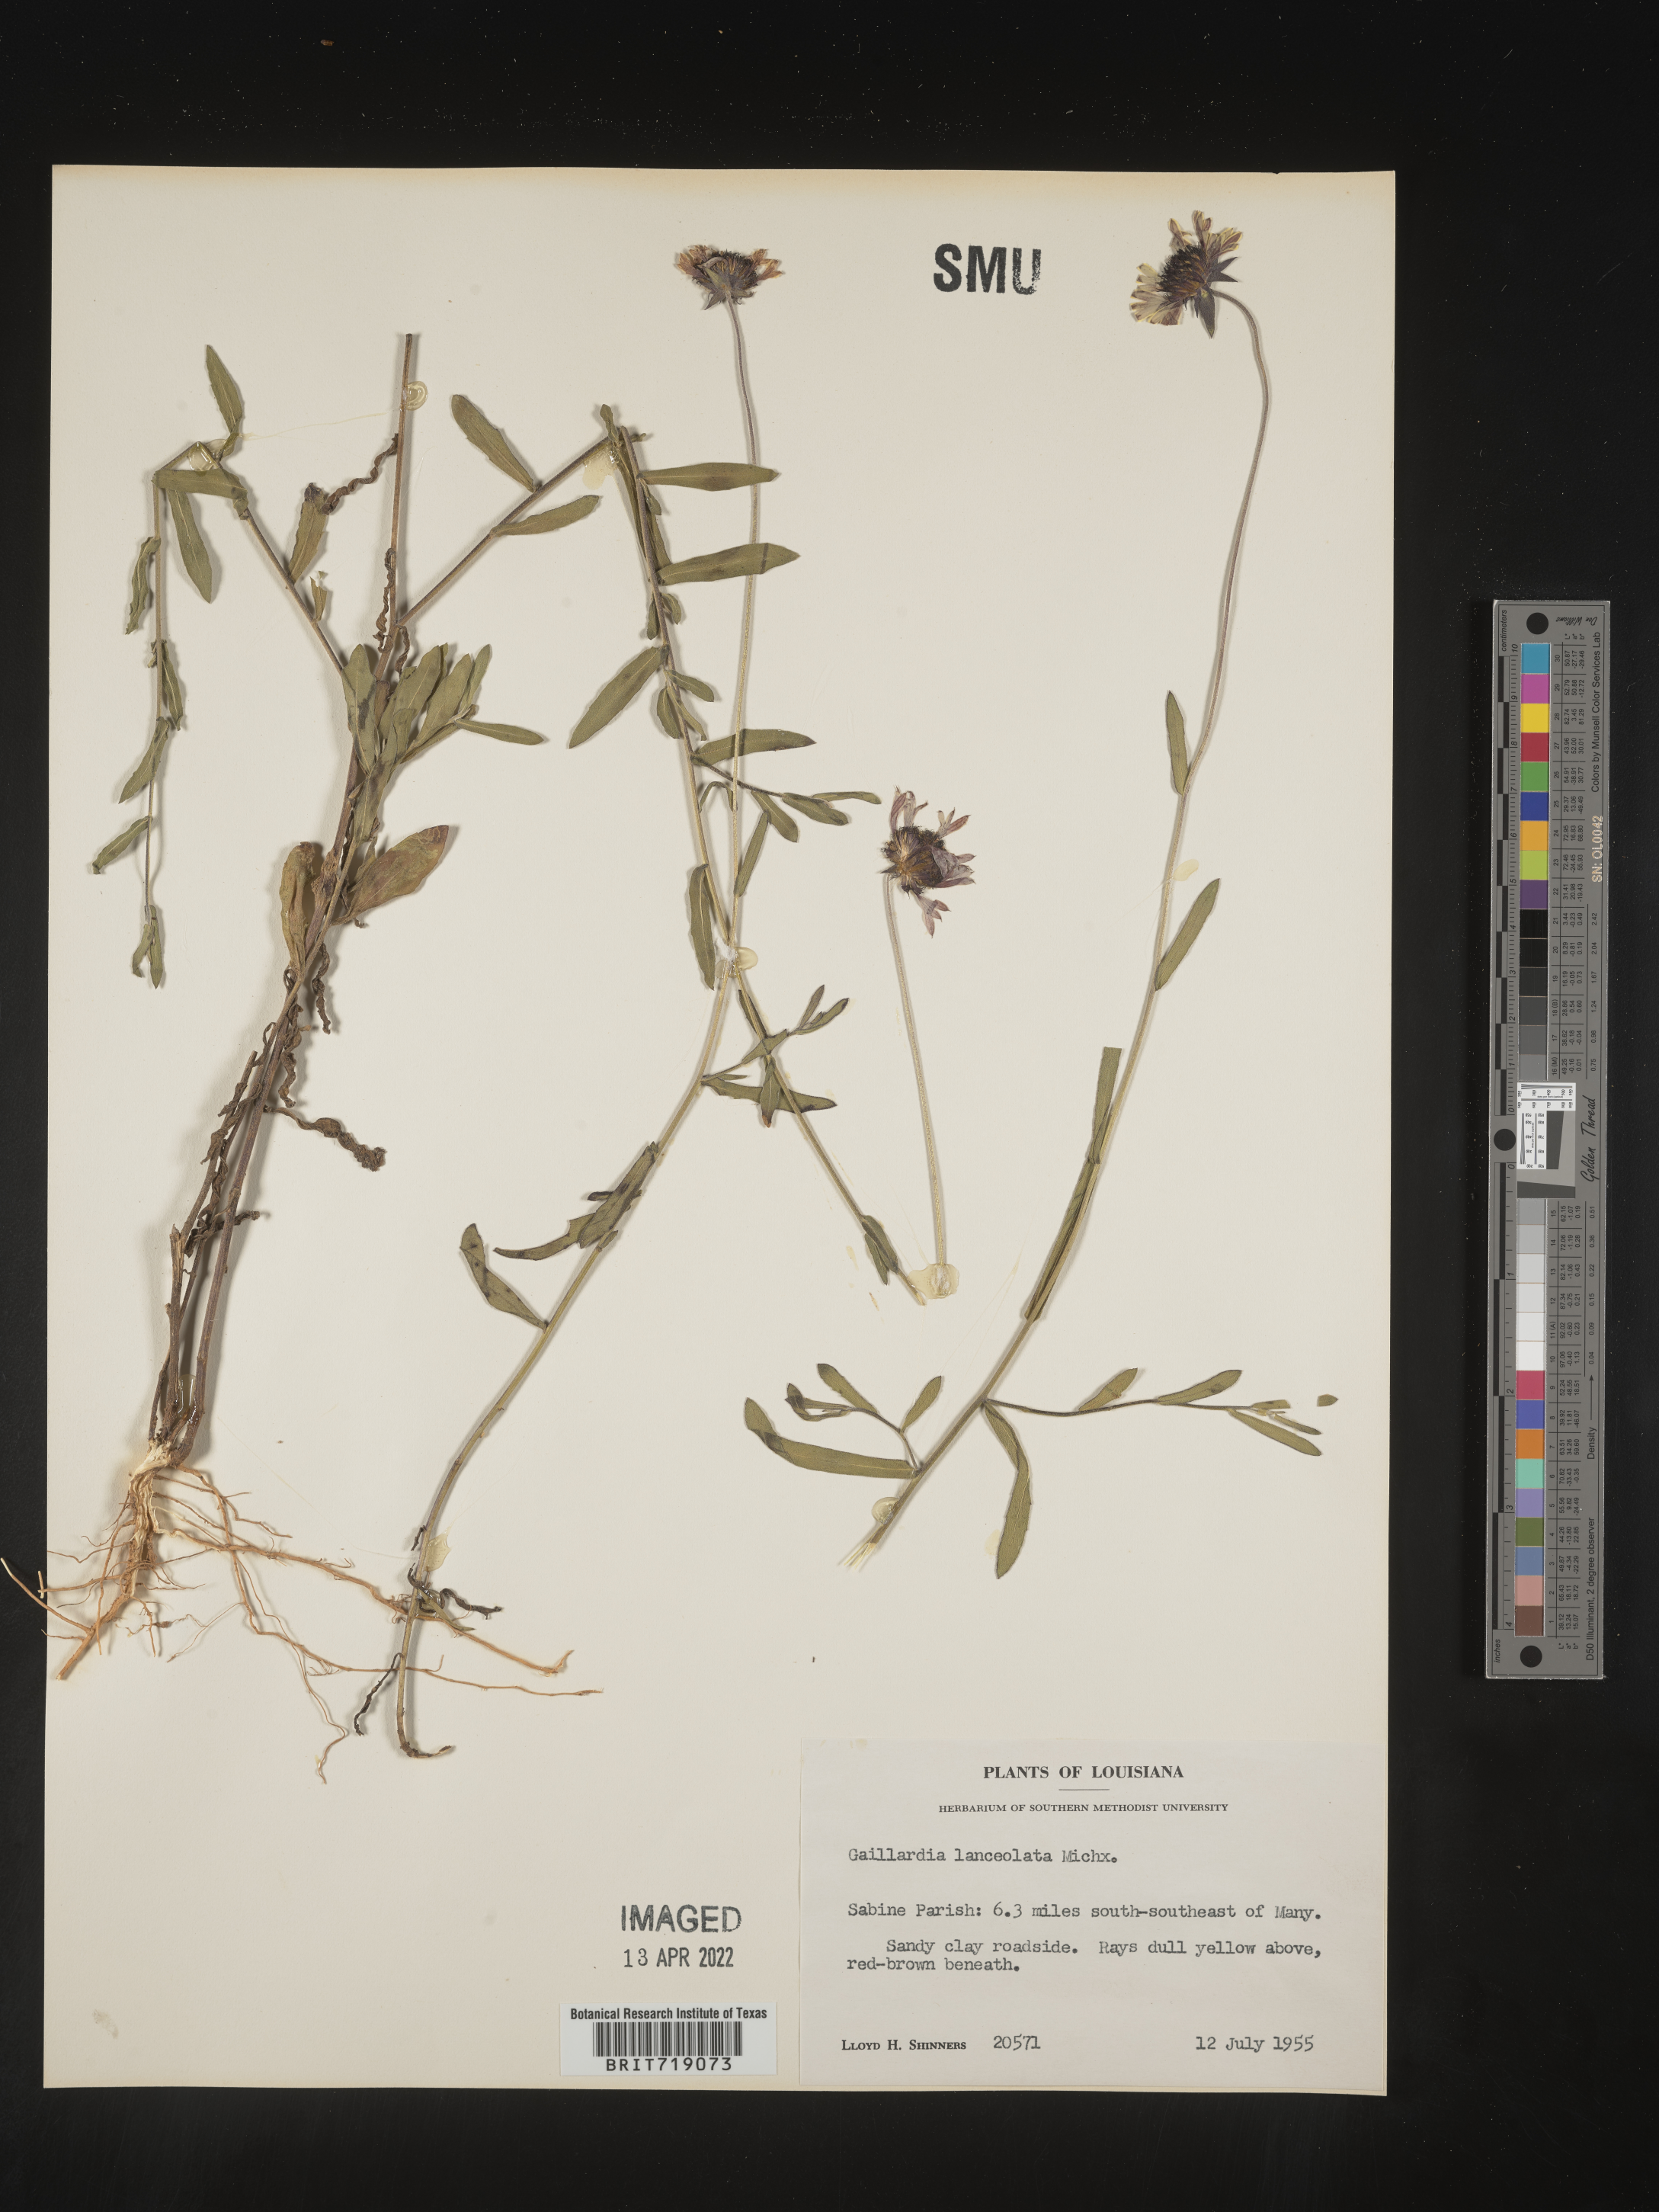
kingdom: Plantae
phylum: Tracheophyta
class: Magnoliopsida
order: Asterales
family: Asteraceae
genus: Gaillardia
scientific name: Gaillardia aestivalis
